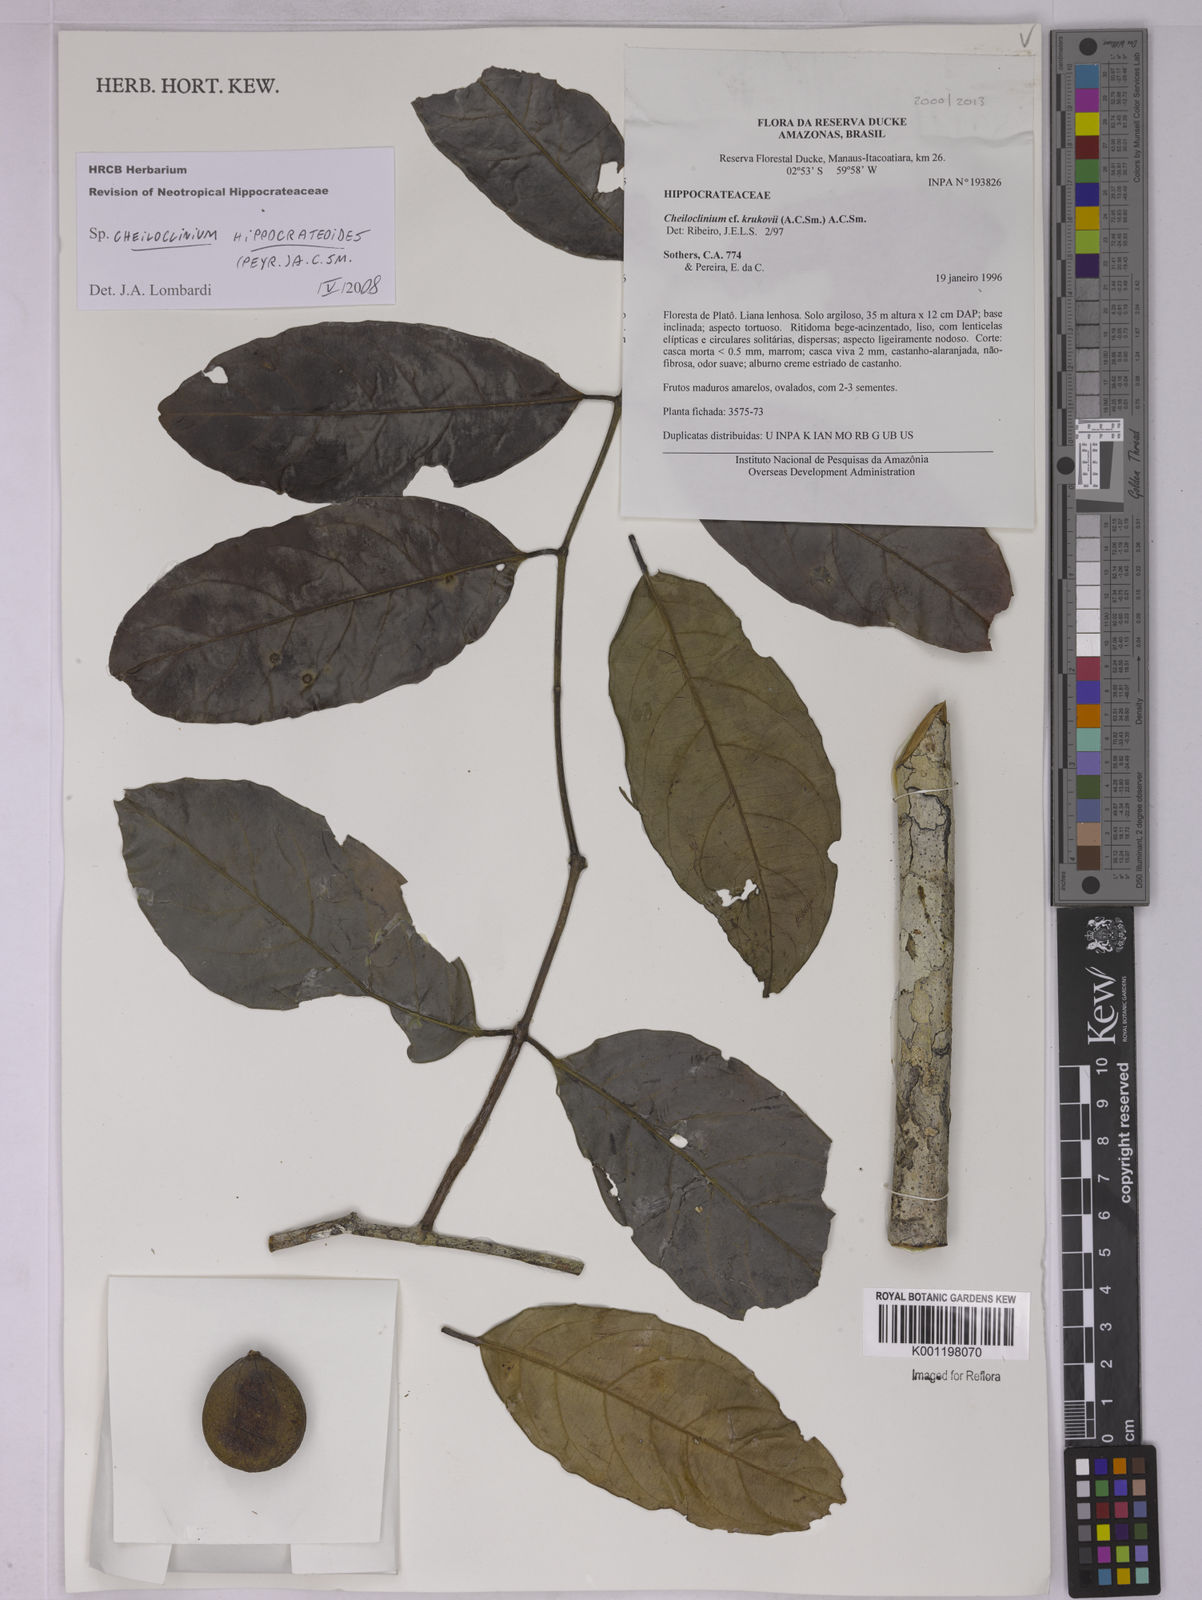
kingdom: Plantae
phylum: Tracheophyta
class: Magnoliopsida
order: Celastrales
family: Celastraceae
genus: Cheiloclinium
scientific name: Cheiloclinium hippocrateoides
